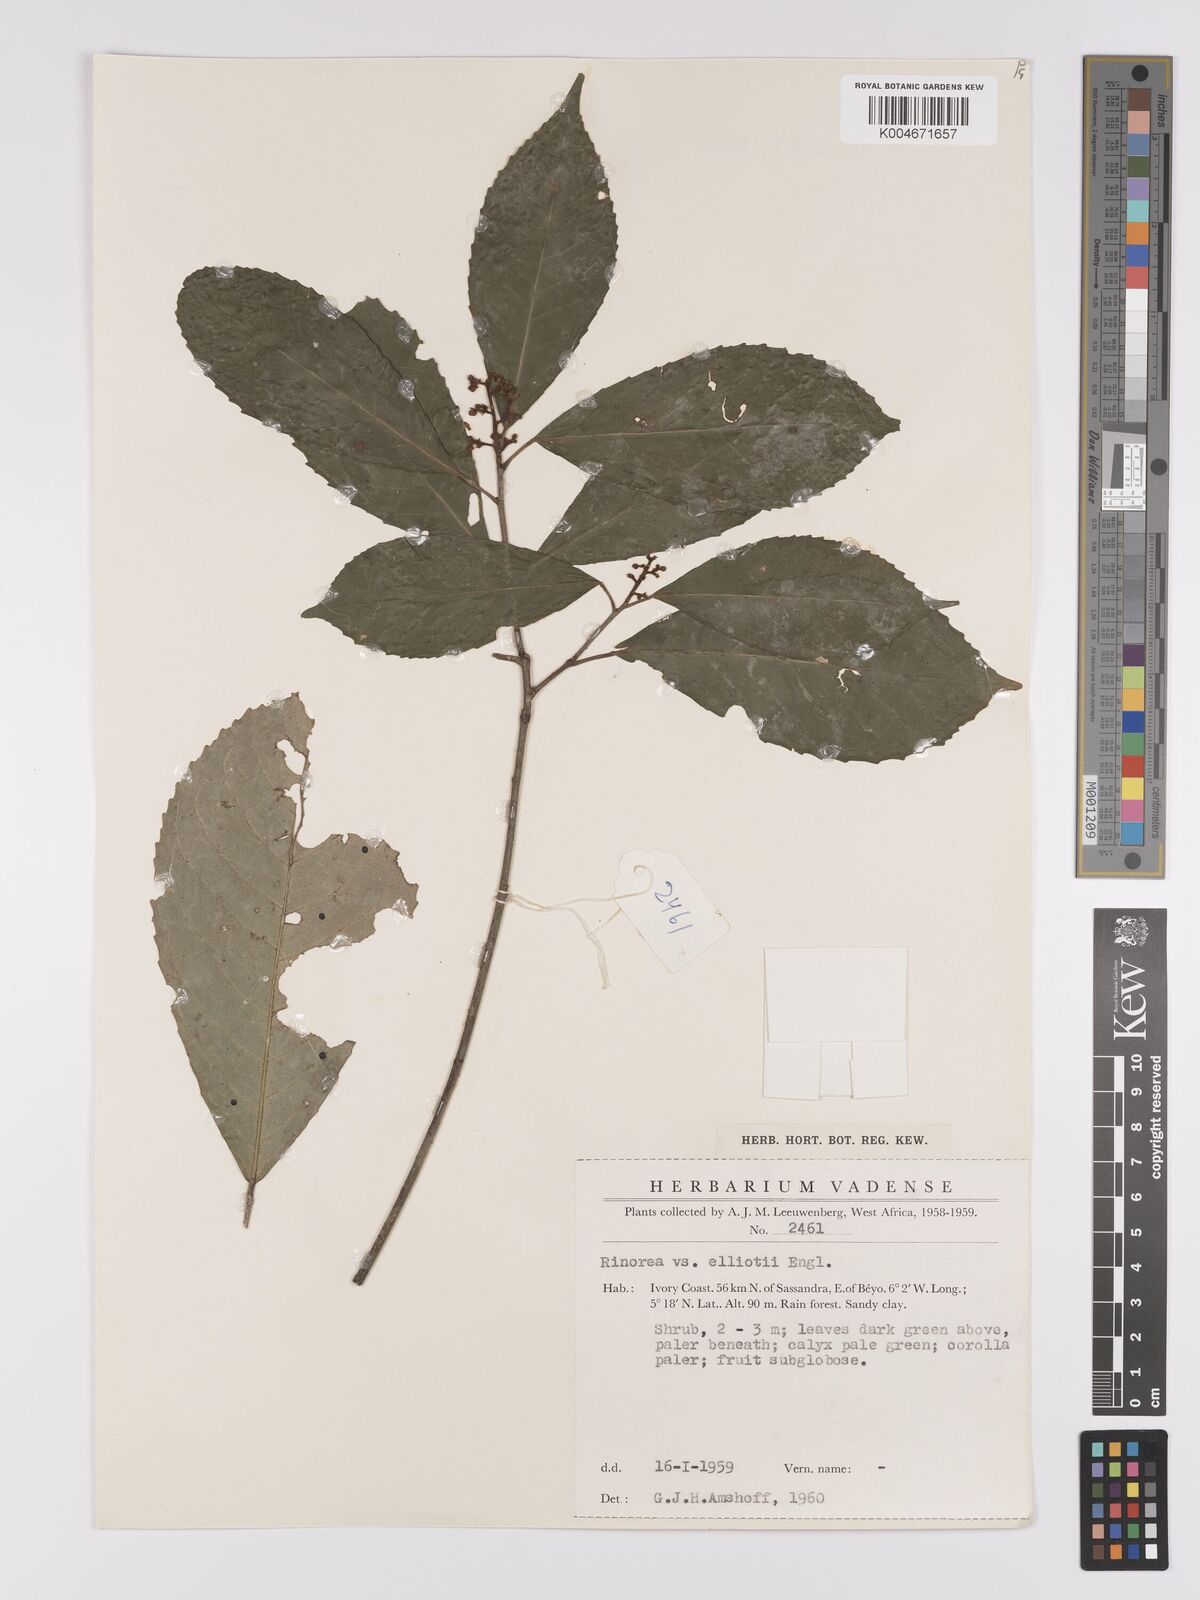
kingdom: Plantae
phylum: Tracheophyta
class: Magnoliopsida
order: Malpighiales
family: Violaceae
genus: Rinorea
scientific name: Rinorea welwitschii
